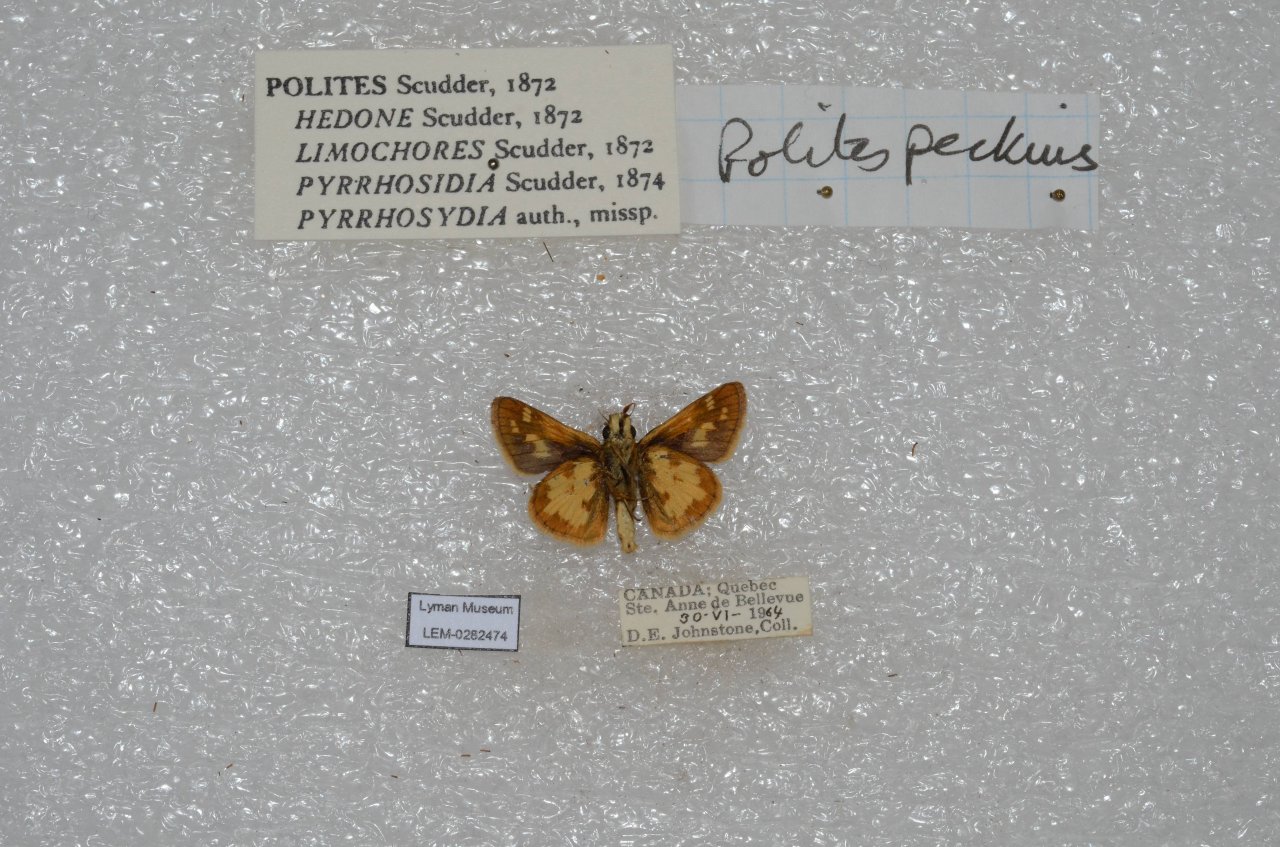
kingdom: Animalia
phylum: Arthropoda
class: Insecta
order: Lepidoptera
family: Hesperiidae
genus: Polites
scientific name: Polites coras
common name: Peck's Skipper
